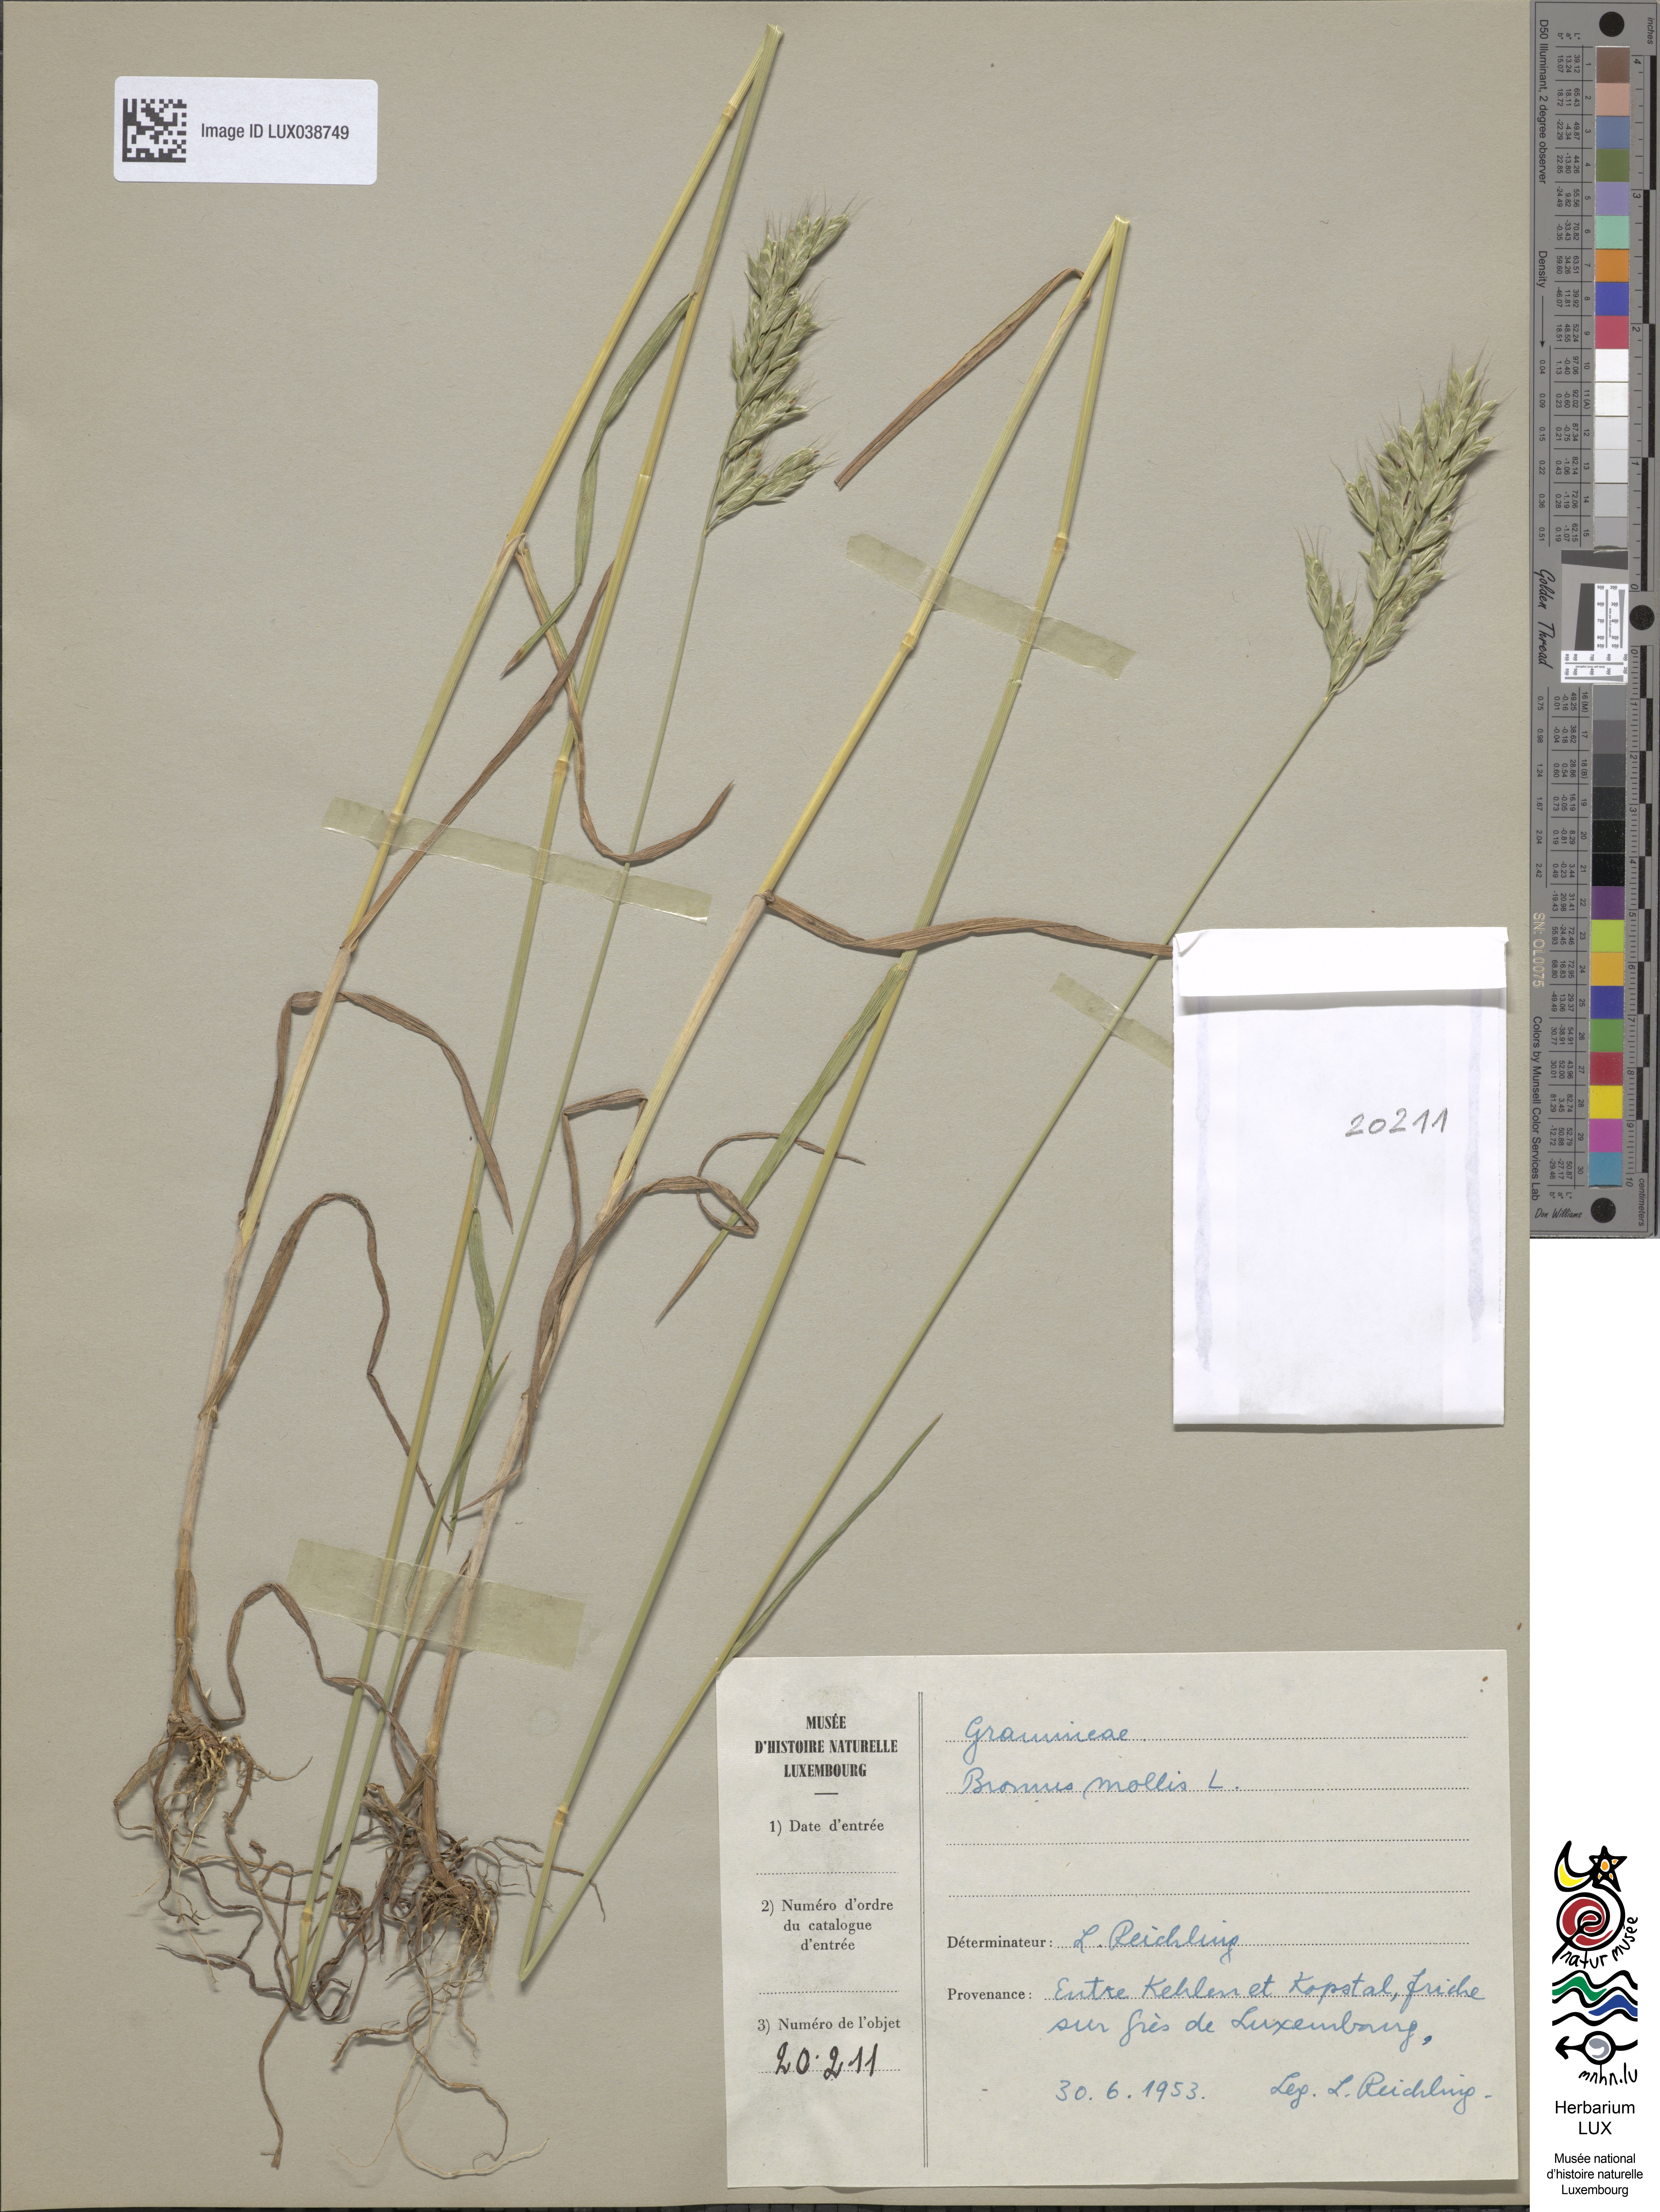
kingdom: Plantae
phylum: Tracheophyta
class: Liliopsida
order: Poales
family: Poaceae
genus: Bromus
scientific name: Bromus hordeaceus
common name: Soft brome
